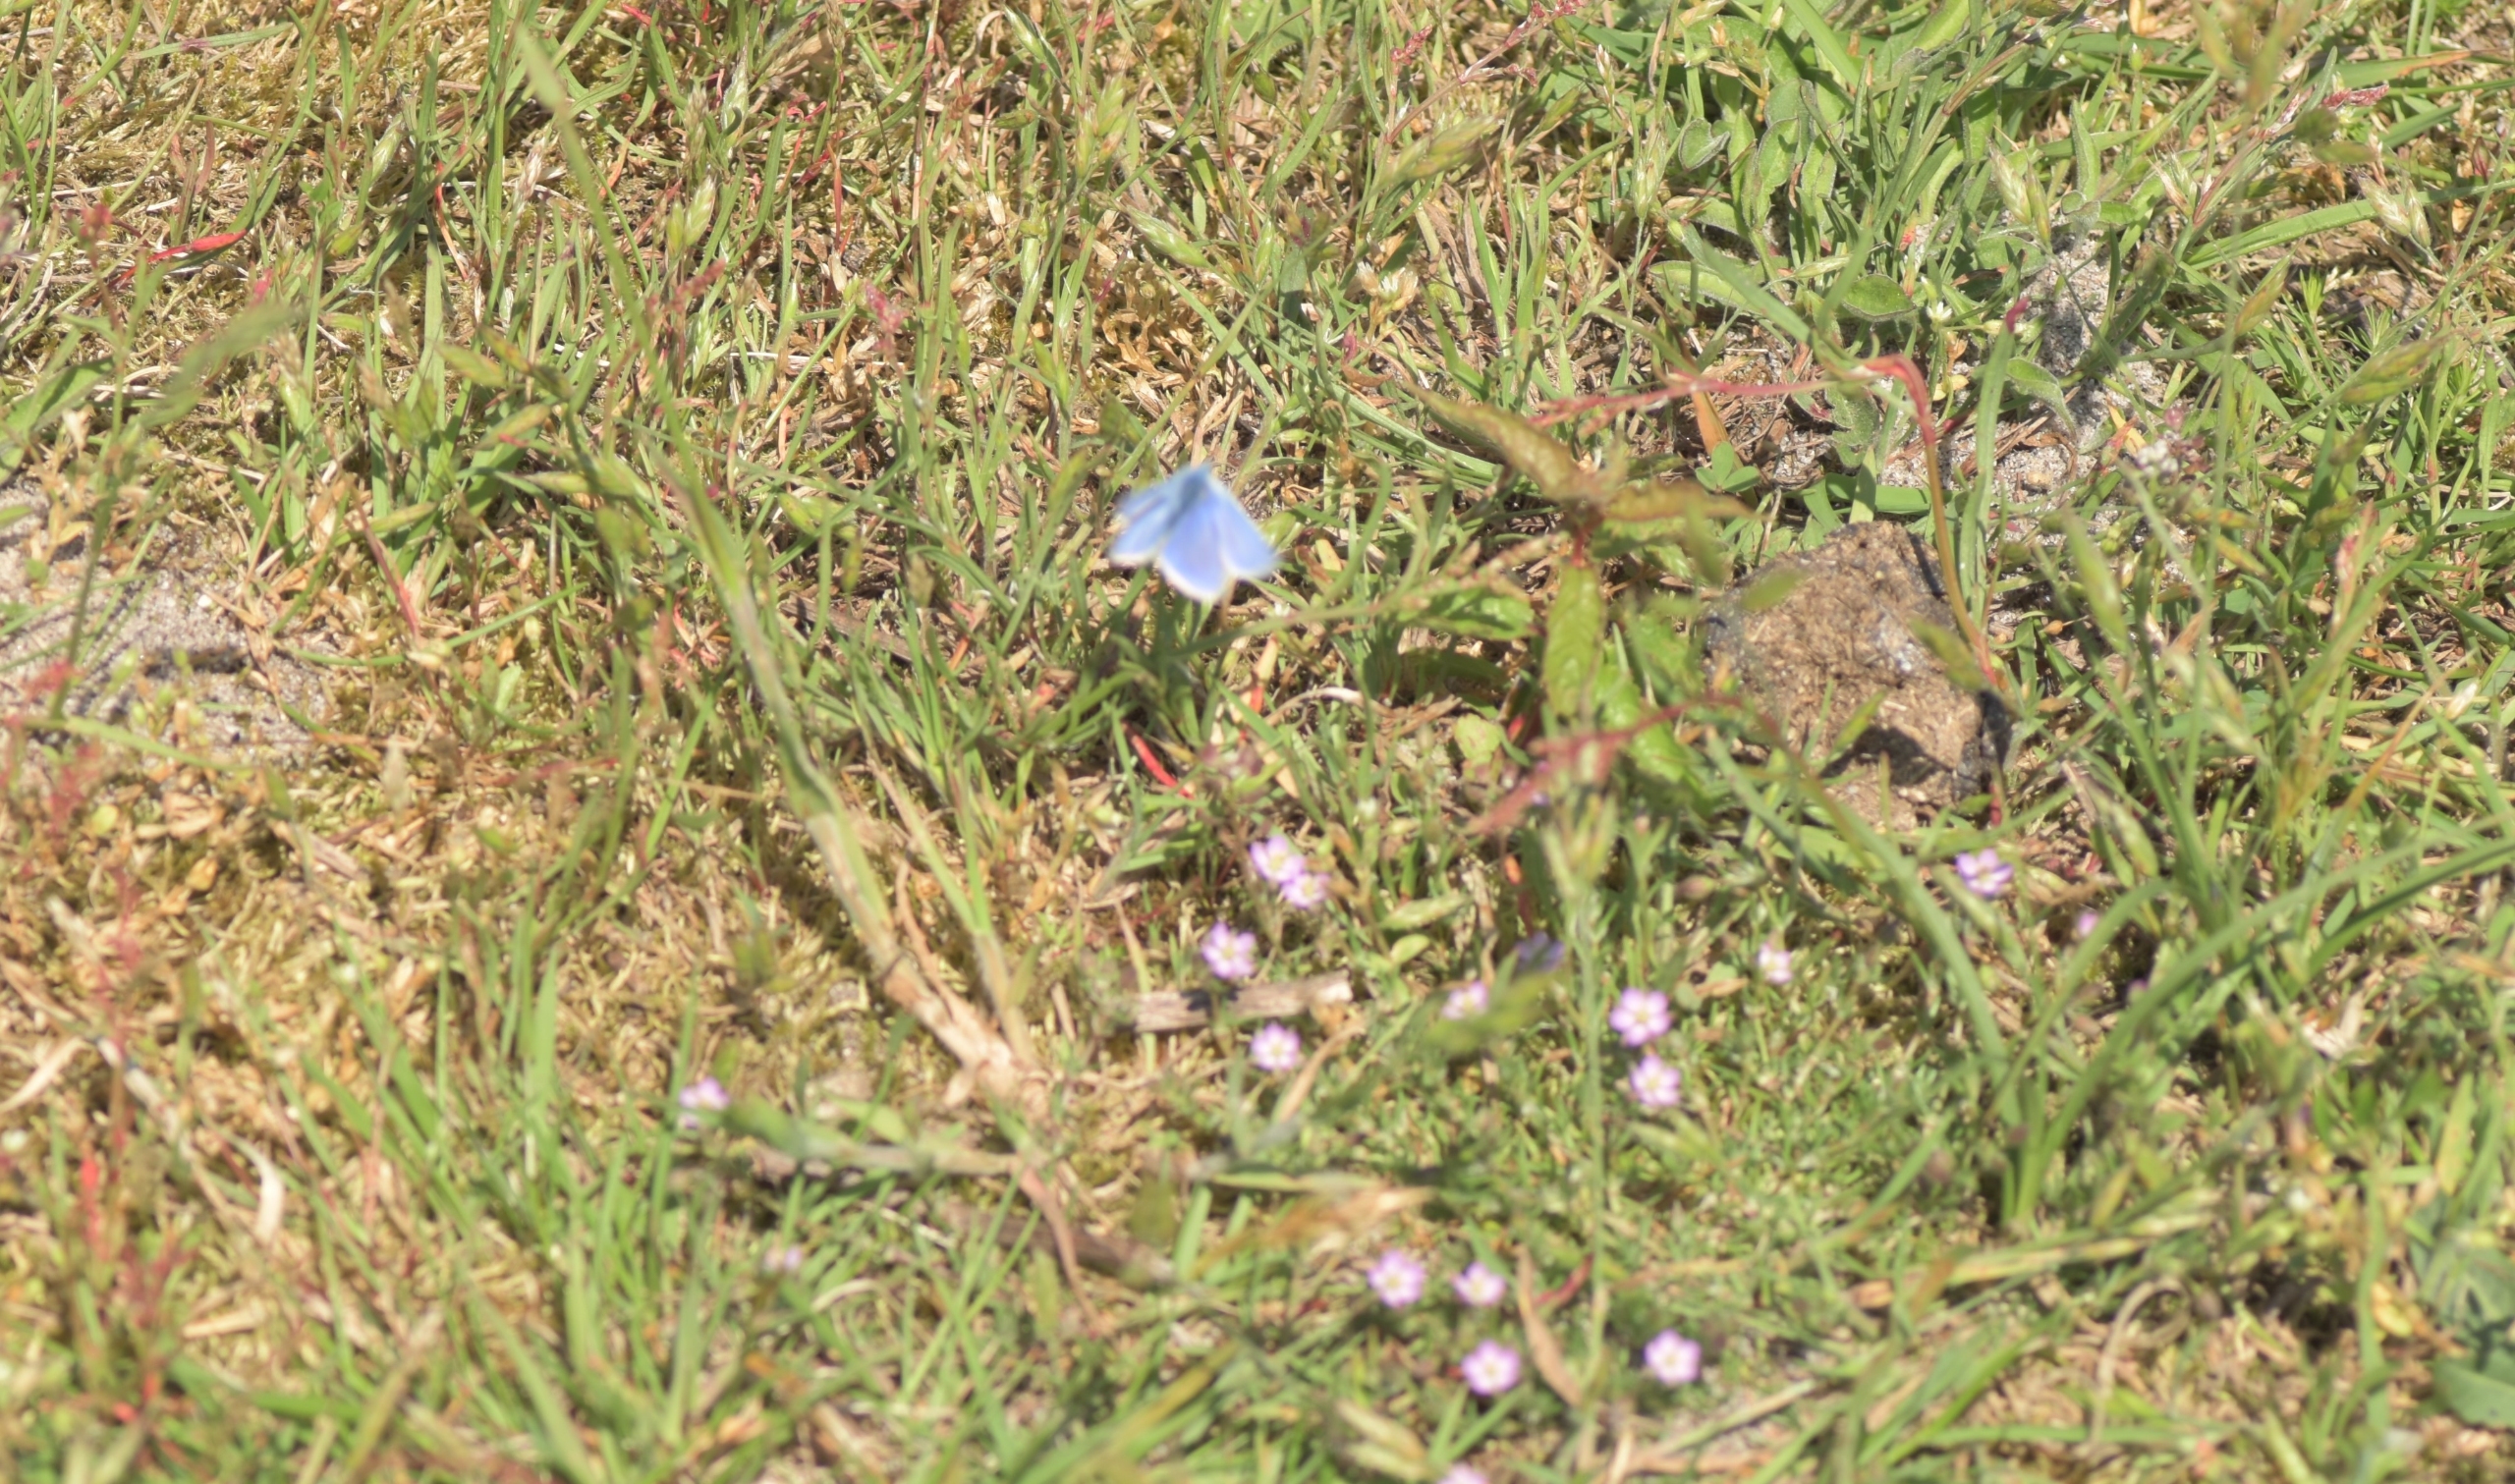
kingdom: Animalia
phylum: Arthropoda
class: Insecta
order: Lepidoptera
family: Lycaenidae
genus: Polyommatus
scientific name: Polyommatus icarus
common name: Almindelig blåfugl
